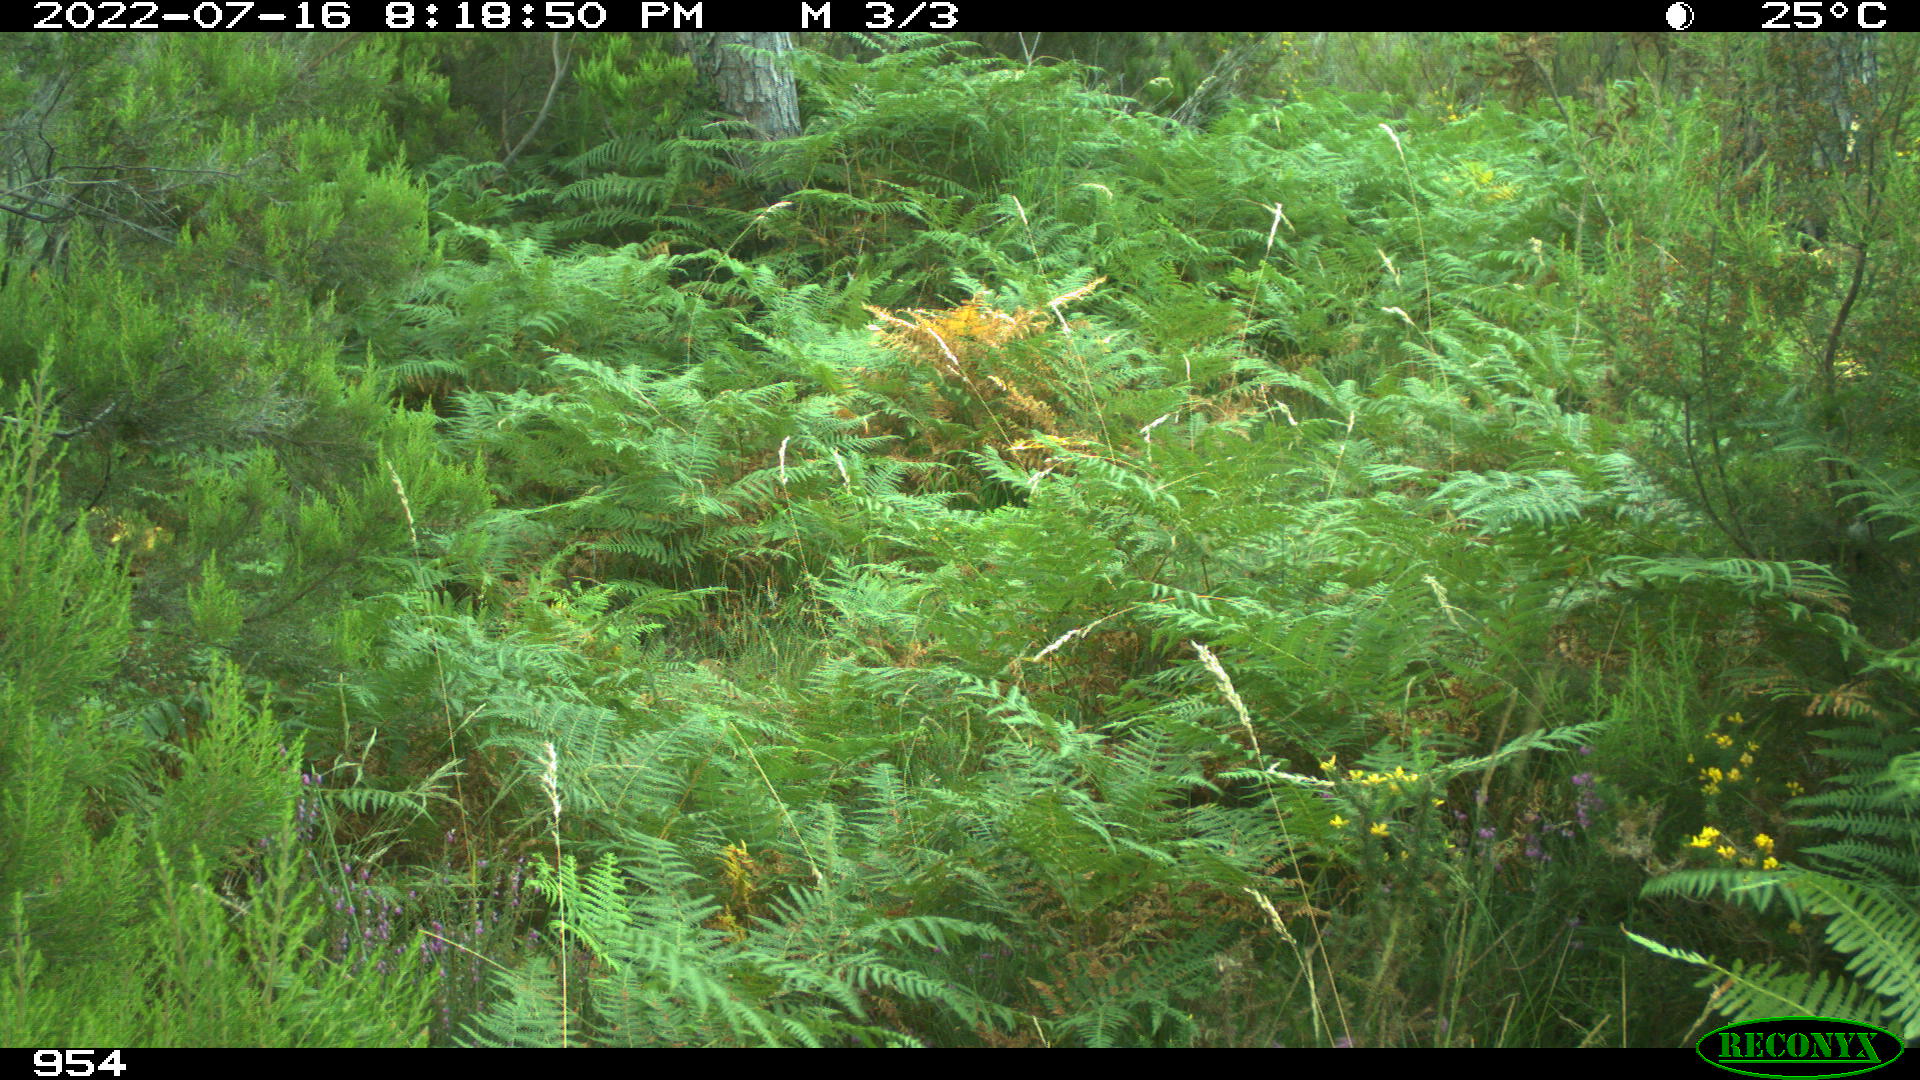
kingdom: Animalia
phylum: Chordata
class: Mammalia
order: Artiodactyla
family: Cervidae
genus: Capreolus
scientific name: Capreolus capreolus
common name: Western roe deer
